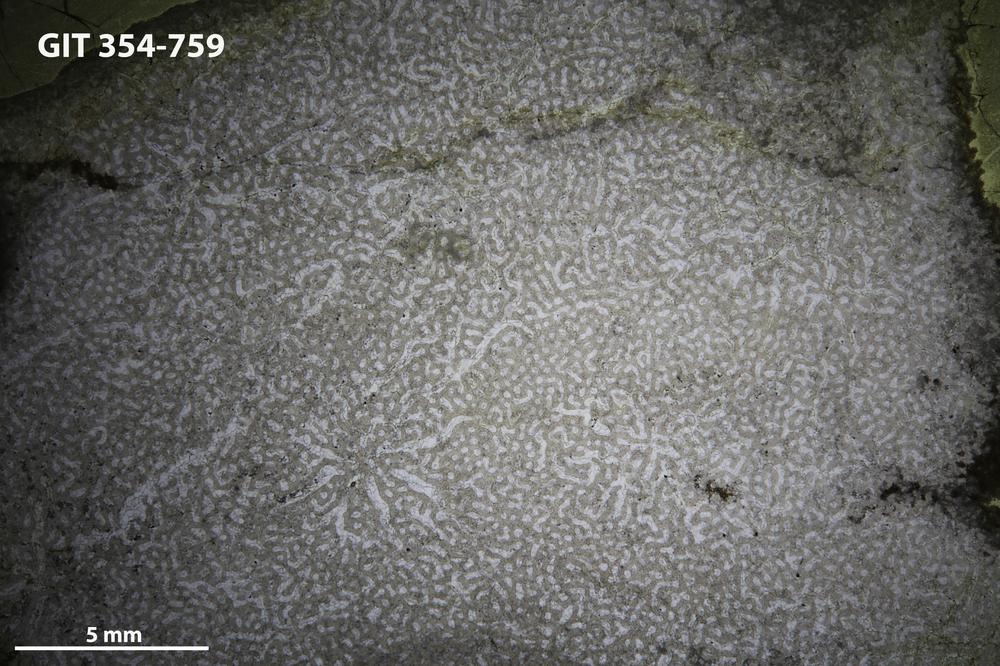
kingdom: Animalia
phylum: Porifera
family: Syringostromellidae
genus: Syringostromella
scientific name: Syringostromella
